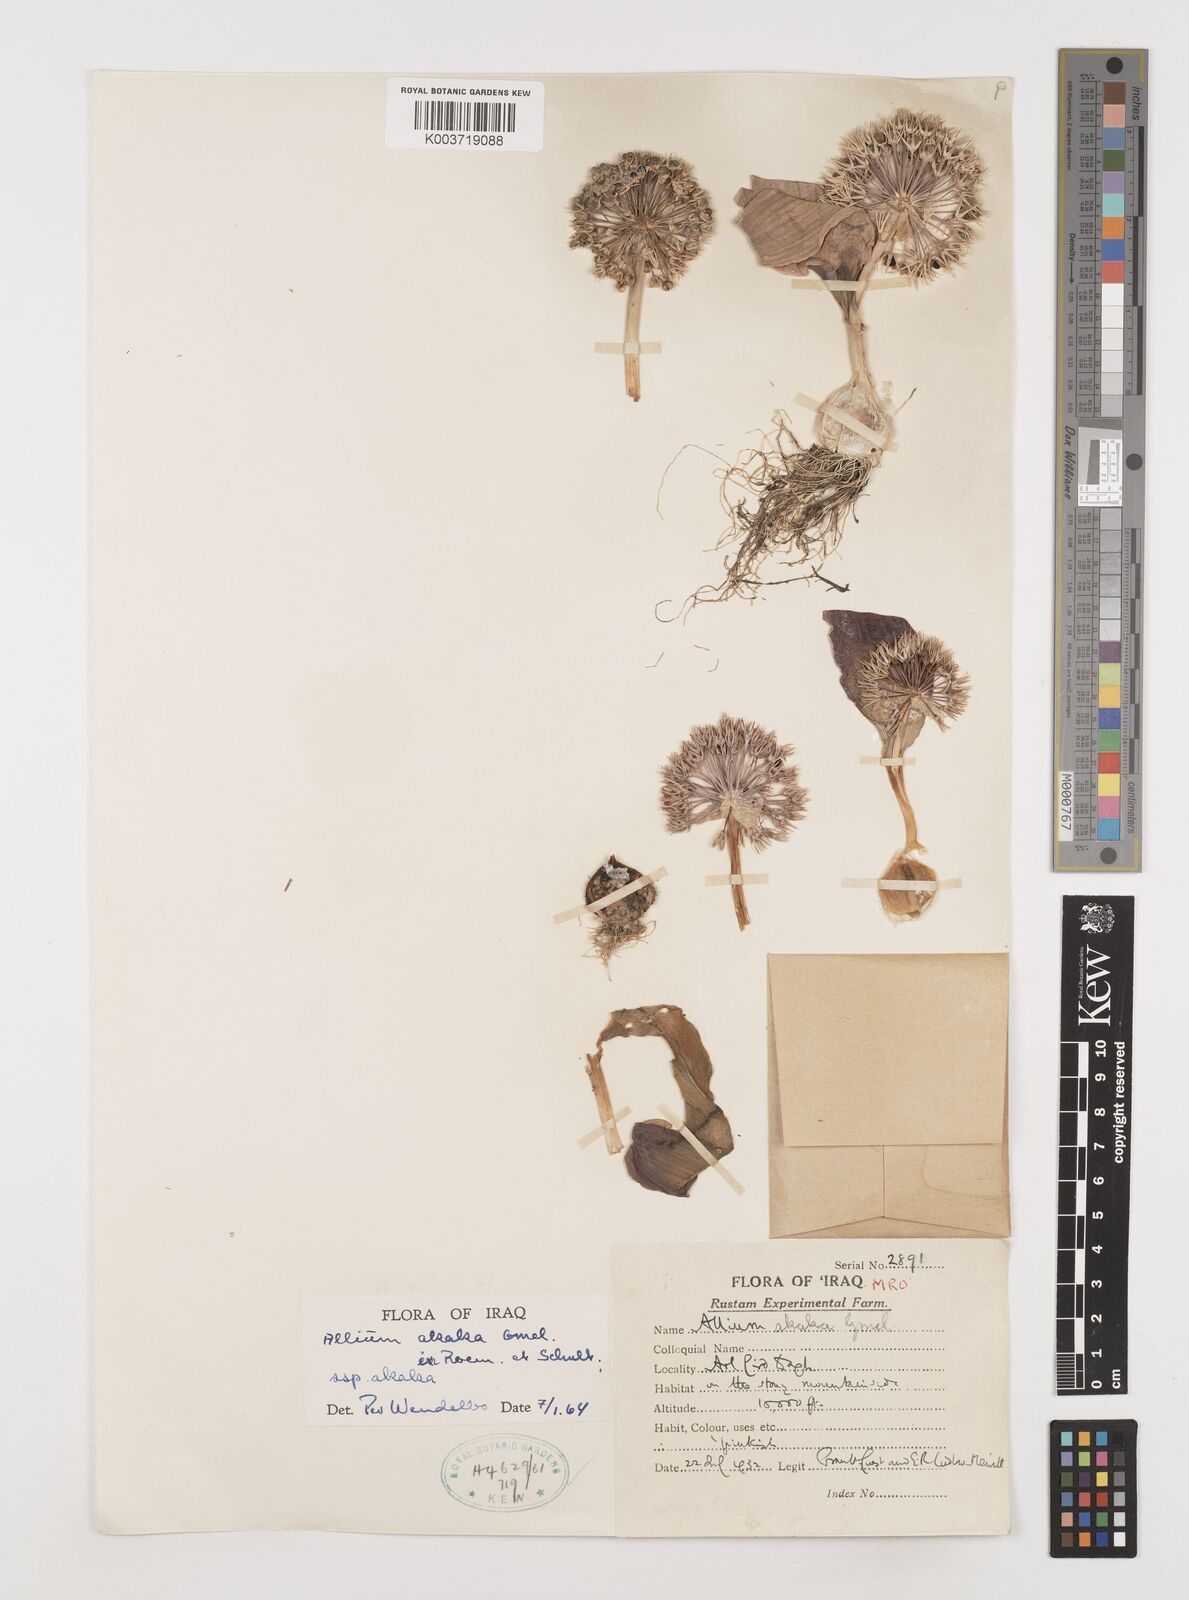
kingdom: Plantae
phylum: Tracheophyta
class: Liliopsida
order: Asparagales
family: Amaryllidaceae
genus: Allium
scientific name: Allium akaka
